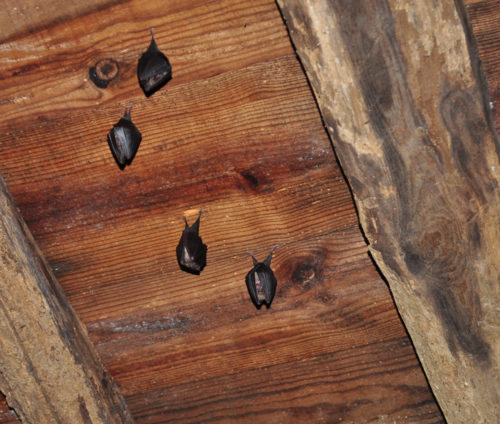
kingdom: Animalia
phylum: Chordata
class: Mammalia
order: Chiroptera
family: Rhinolophidae
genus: Rhinolophus
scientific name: Rhinolophus hipposideros
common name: Lesser horseshoe bat
